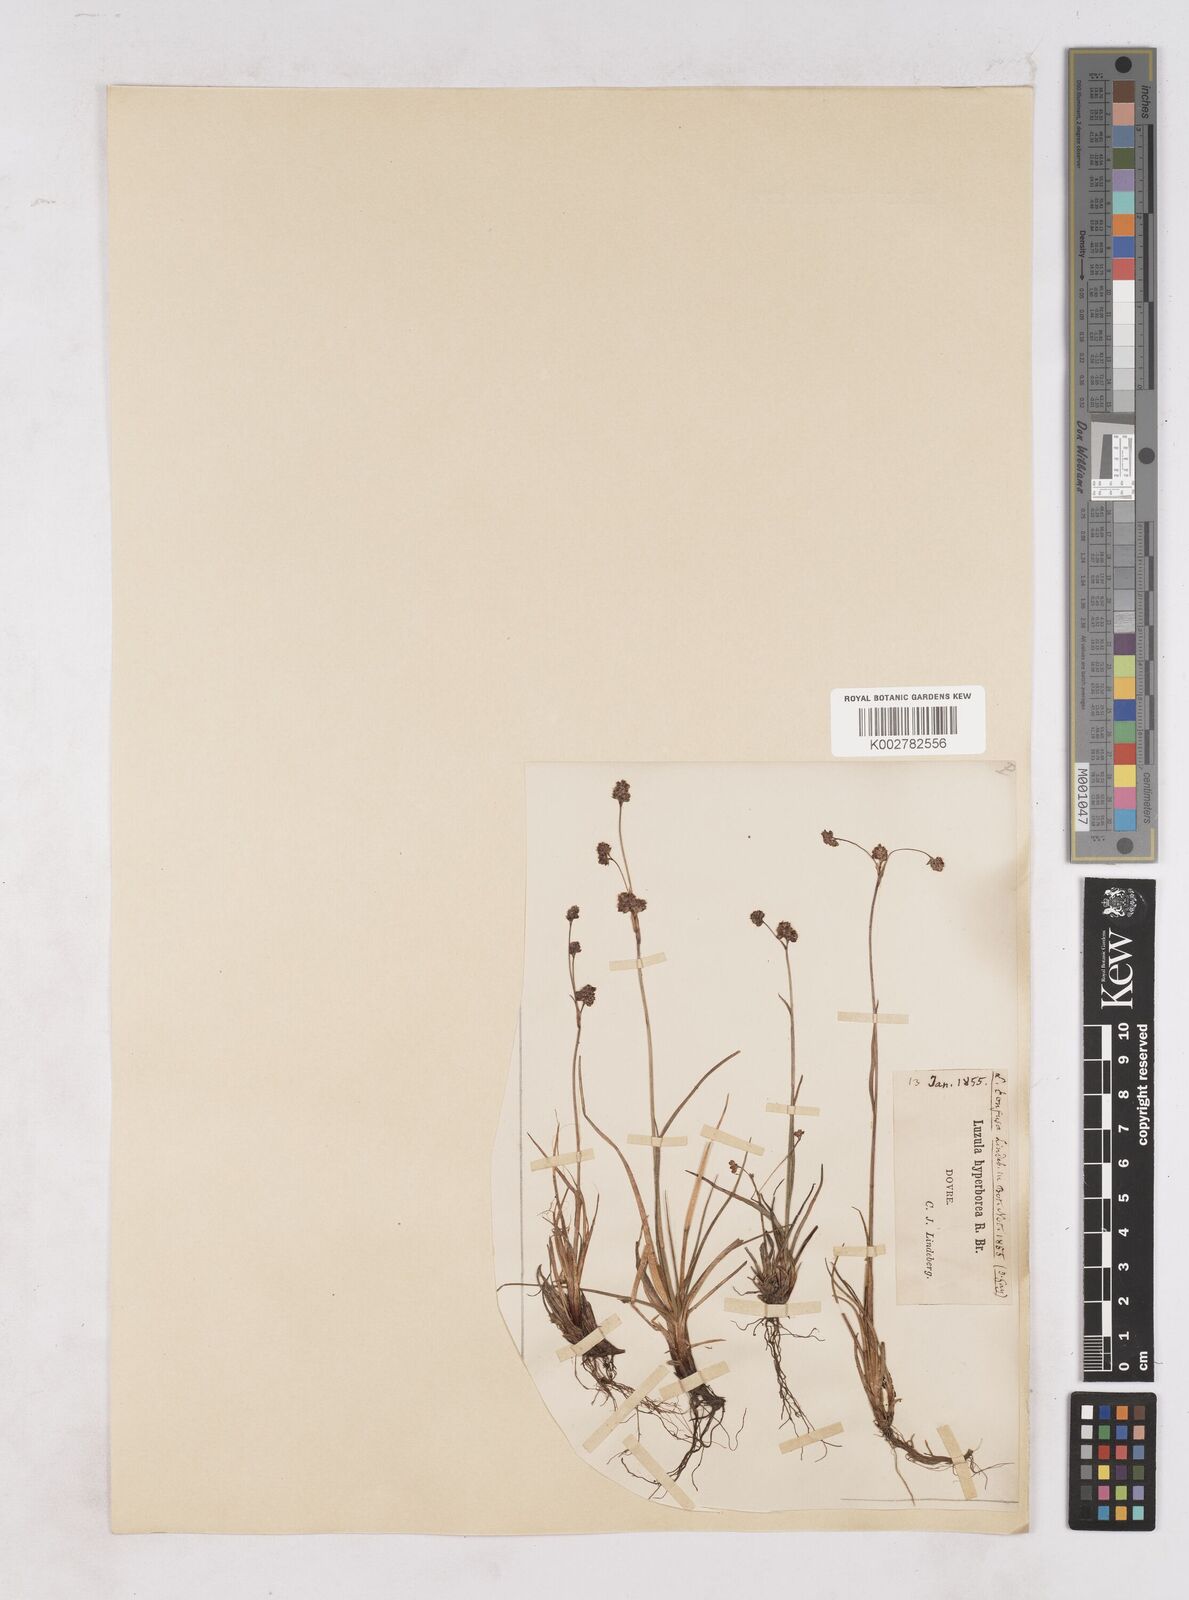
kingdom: Plantae
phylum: Tracheophyta
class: Liliopsida
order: Poales
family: Juncaceae
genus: Luzula
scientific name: Luzula confusa
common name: Northern wood rush
